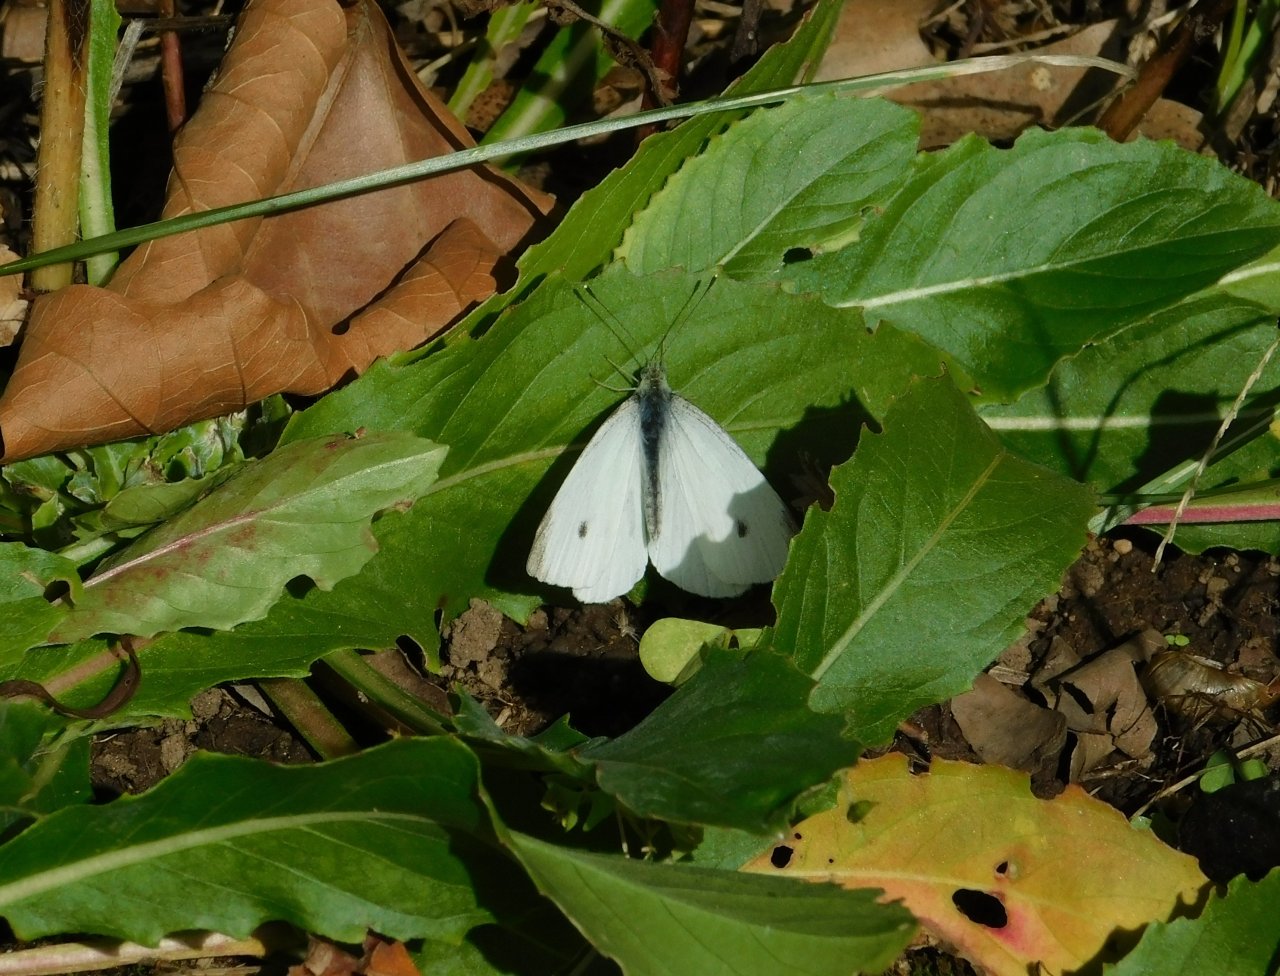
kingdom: Animalia
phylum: Arthropoda
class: Insecta
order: Lepidoptera
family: Pieridae
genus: Pieris
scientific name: Pieris rapae
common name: Cabbage White
